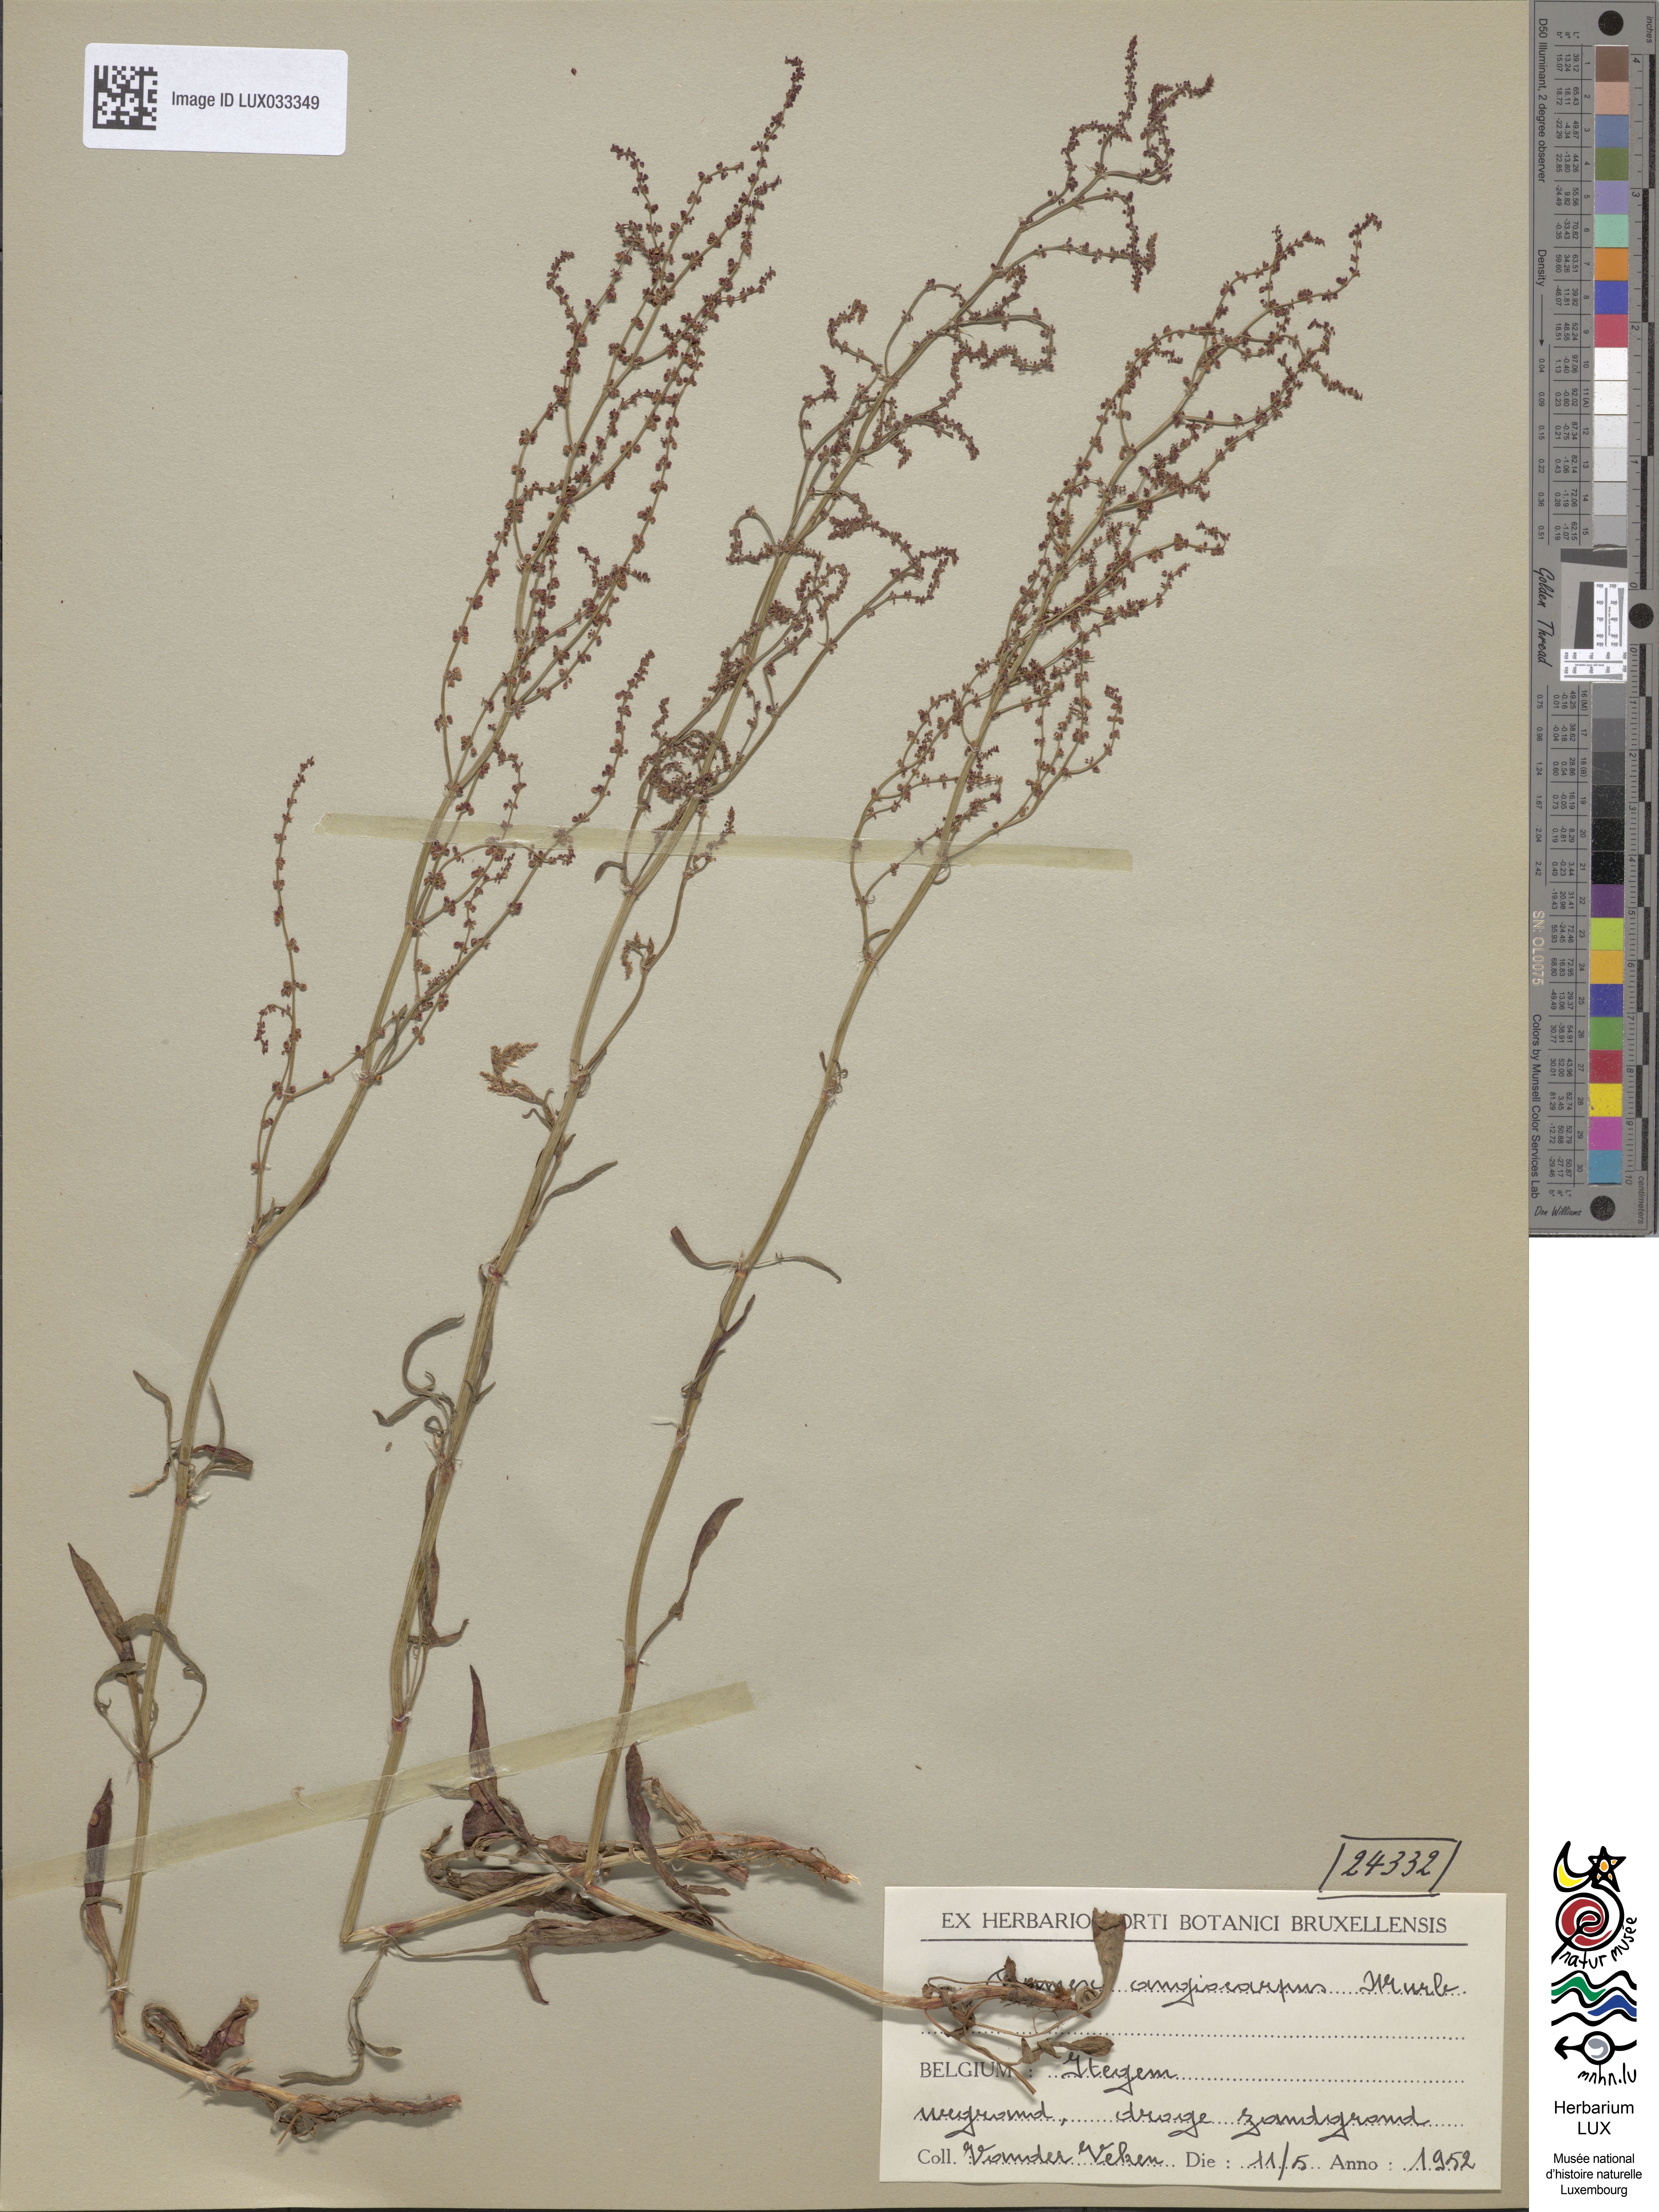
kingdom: Plantae
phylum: Tracheophyta
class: Magnoliopsida
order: Caryophyllales
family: Polygonaceae
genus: Rumex
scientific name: Rumex acetosella
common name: Common sheep sorrel
